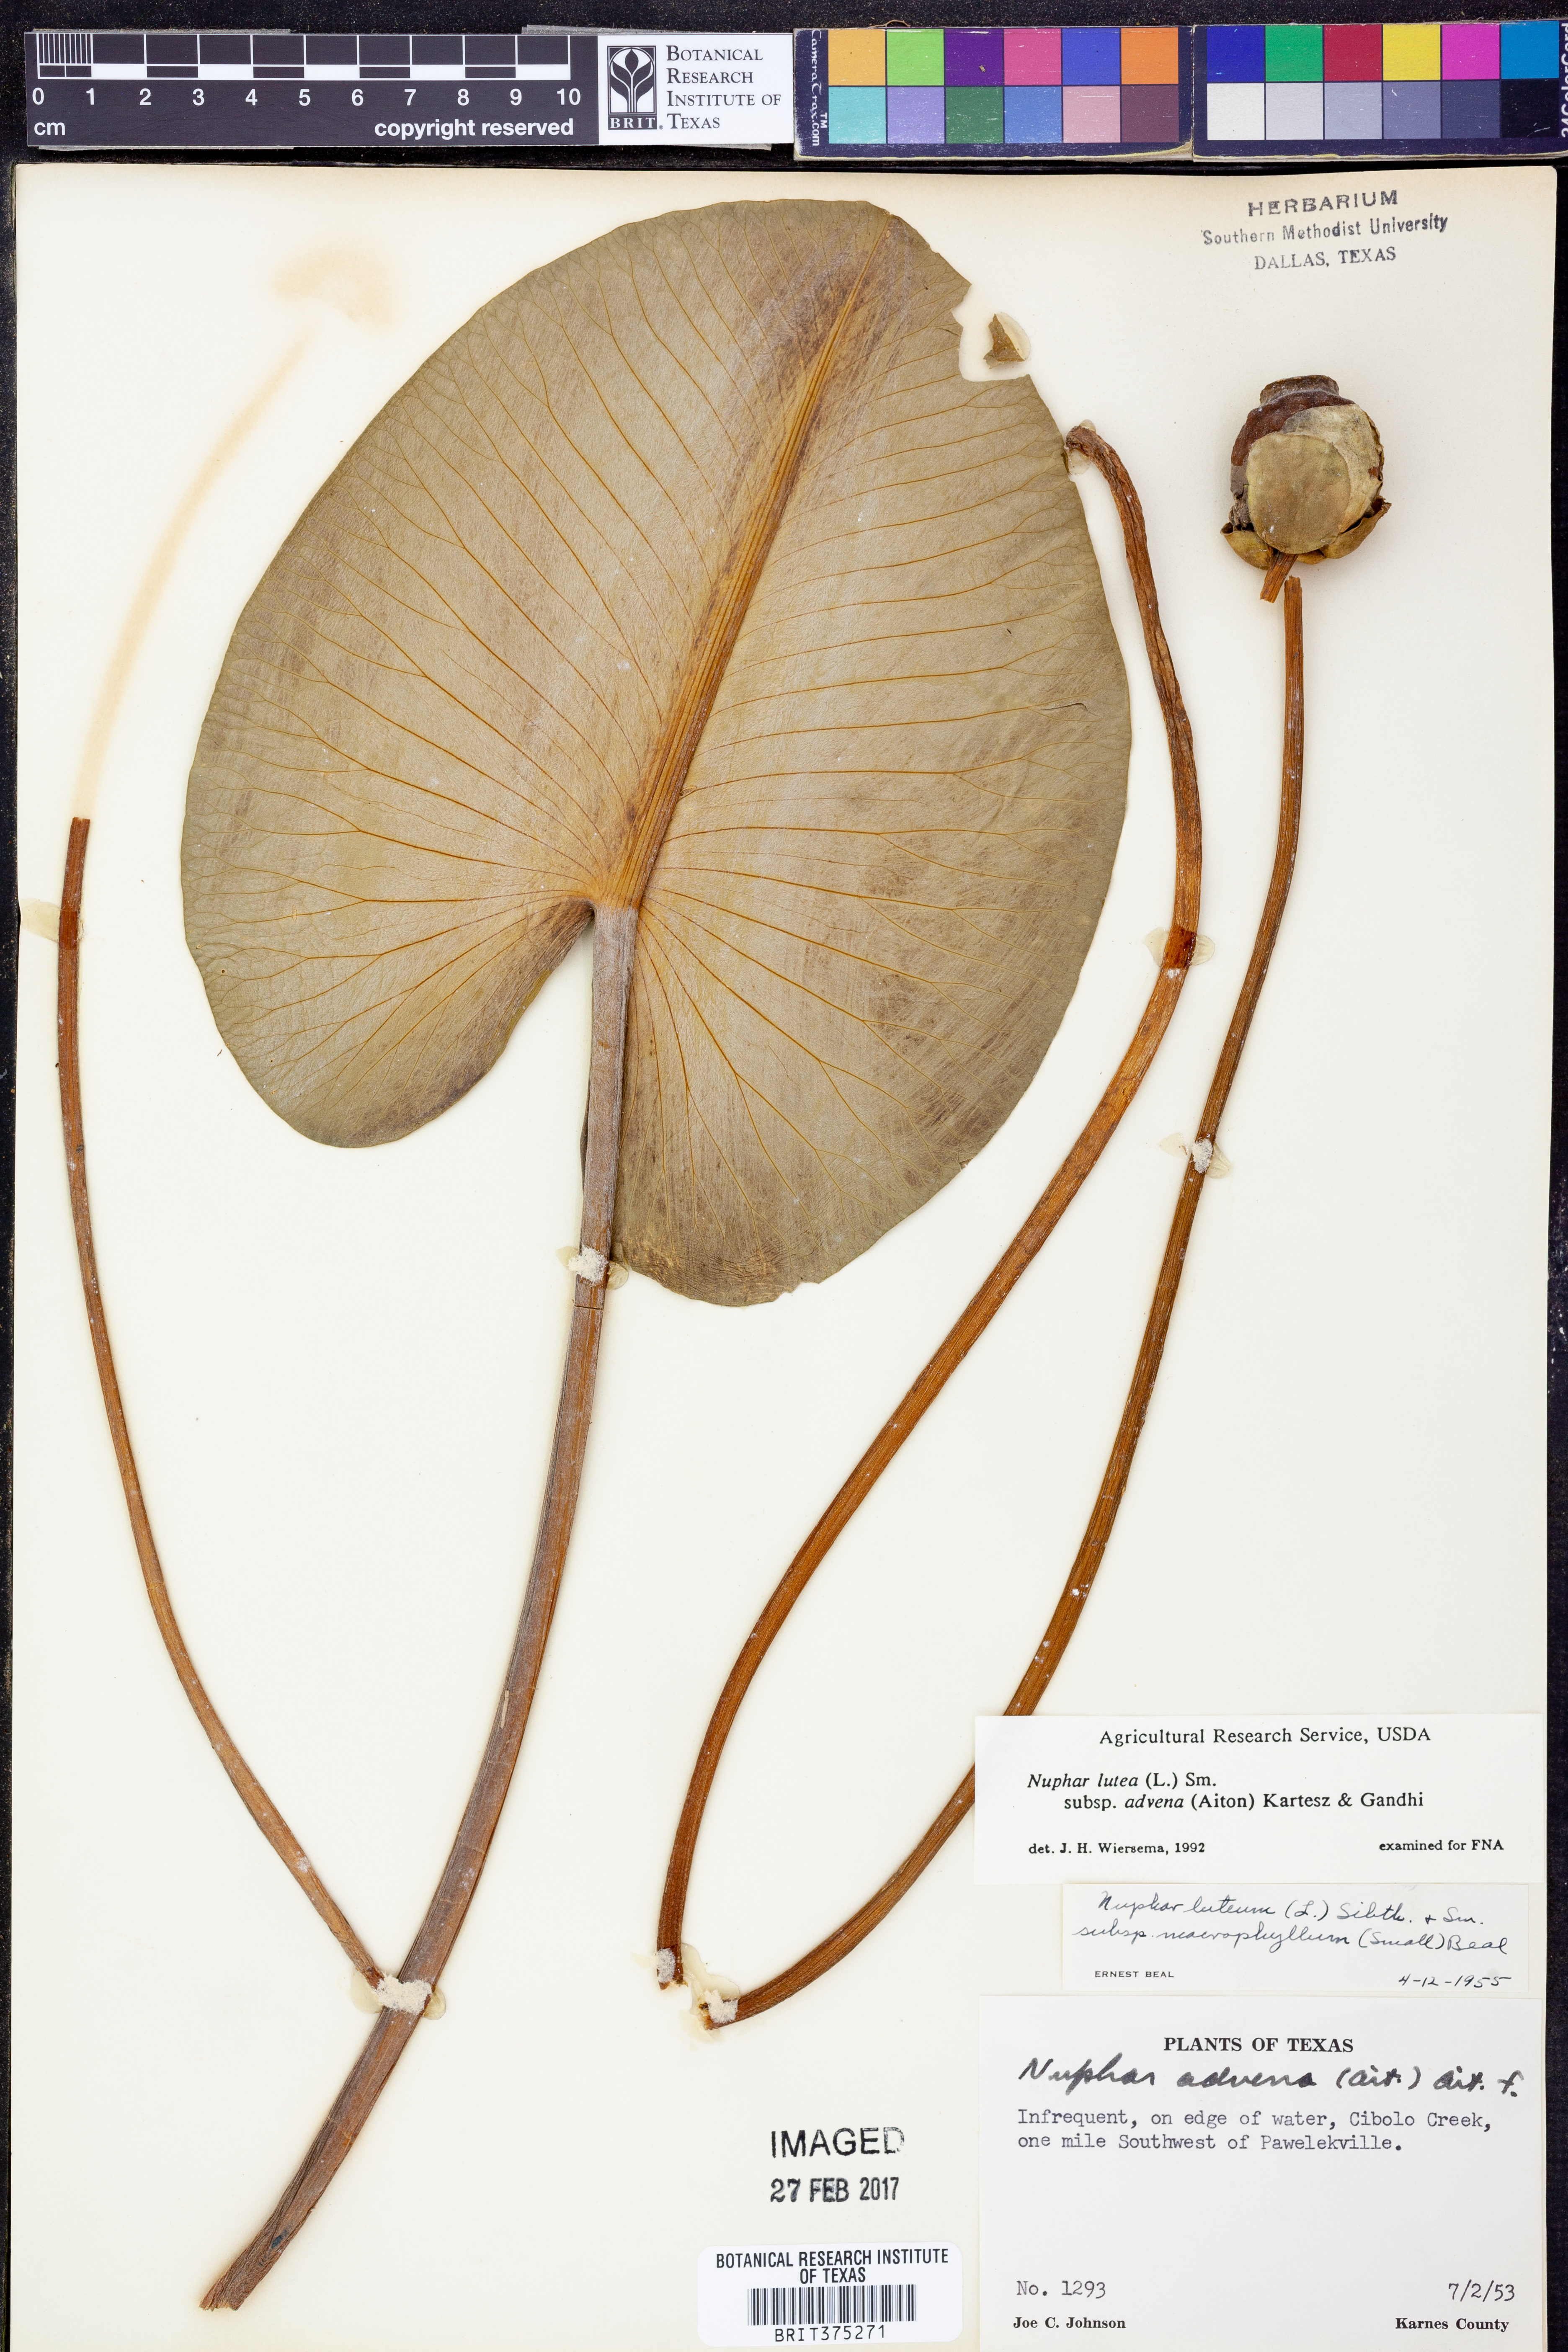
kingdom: Plantae
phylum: Tracheophyta
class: Magnoliopsida
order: Nymphaeales
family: Nymphaeaceae
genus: Nuphar
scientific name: Nuphar advena
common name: Spatter-dock
